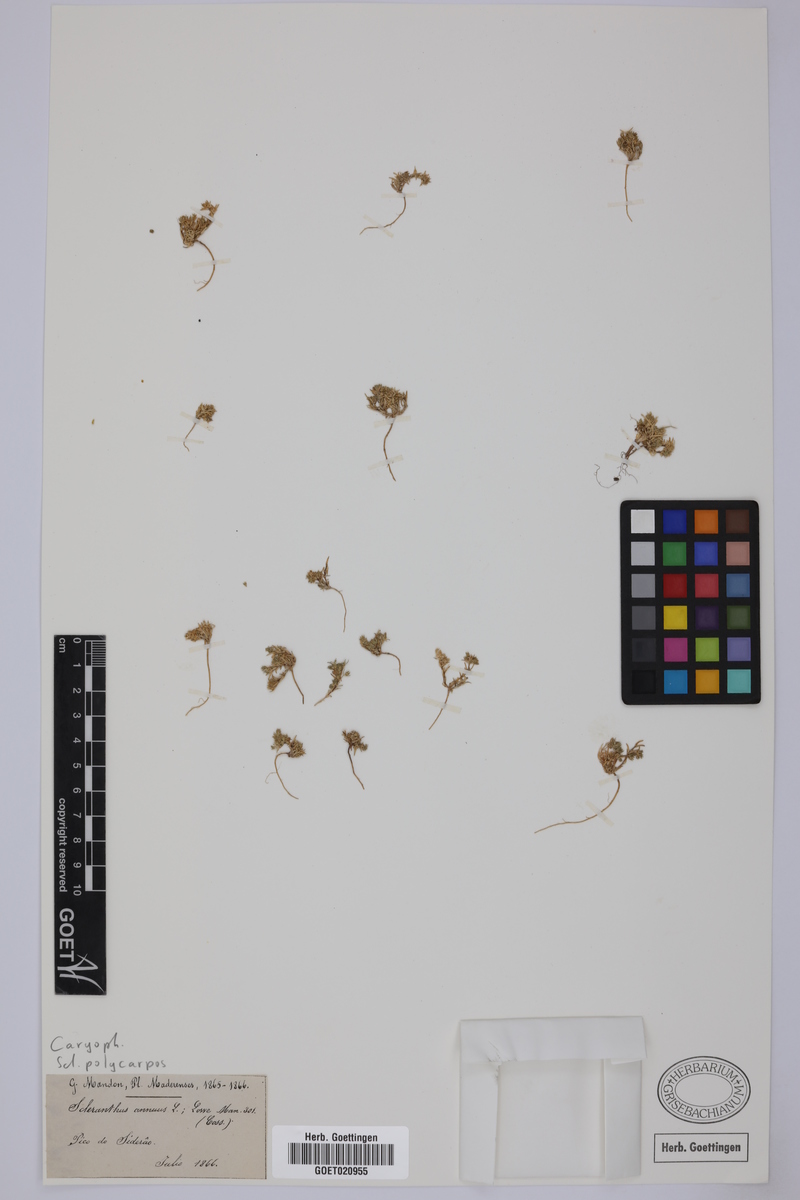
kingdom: Plantae
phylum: Tracheophyta
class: Magnoliopsida
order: Caryophyllales
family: Caryophyllaceae
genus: Scleranthus
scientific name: Scleranthus annuus
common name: Annual knawel
